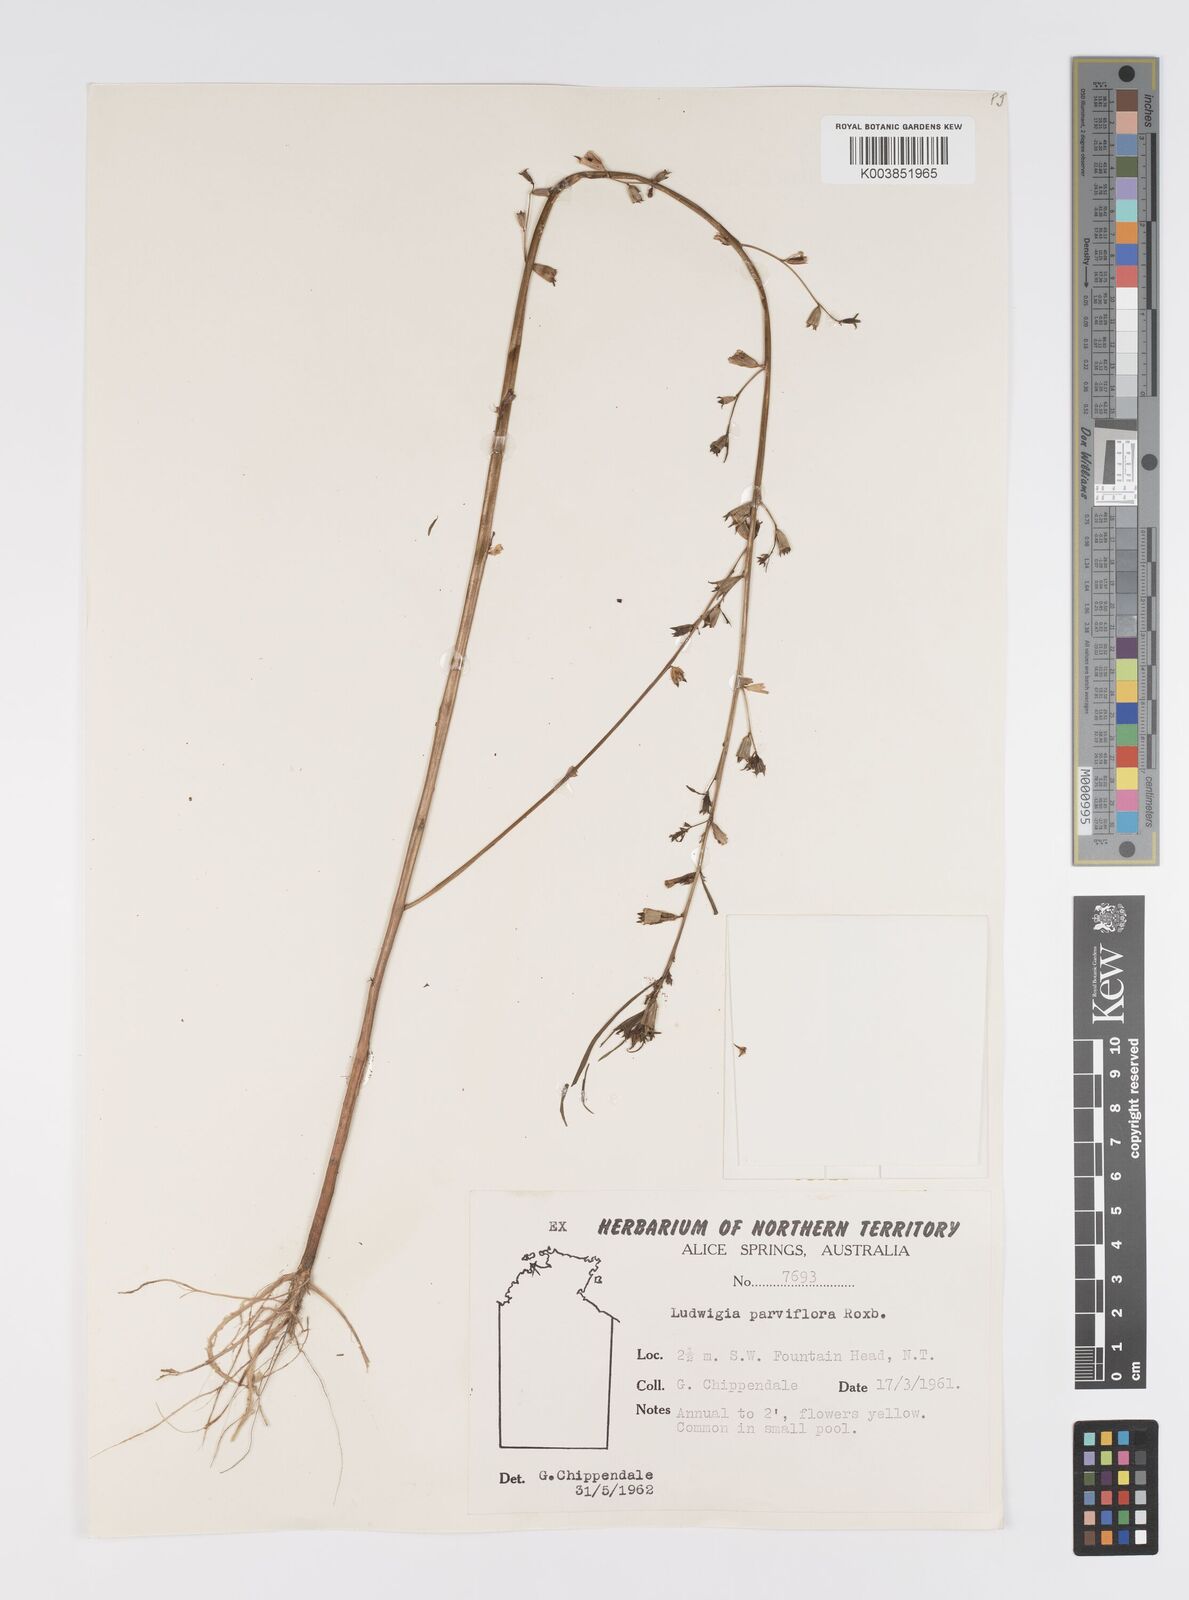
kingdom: Plantae
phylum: Tracheophyta
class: Magnoliopsida
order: Myrtales
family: Onagraceae
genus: Ludwigia
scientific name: Ludwigia perennis
